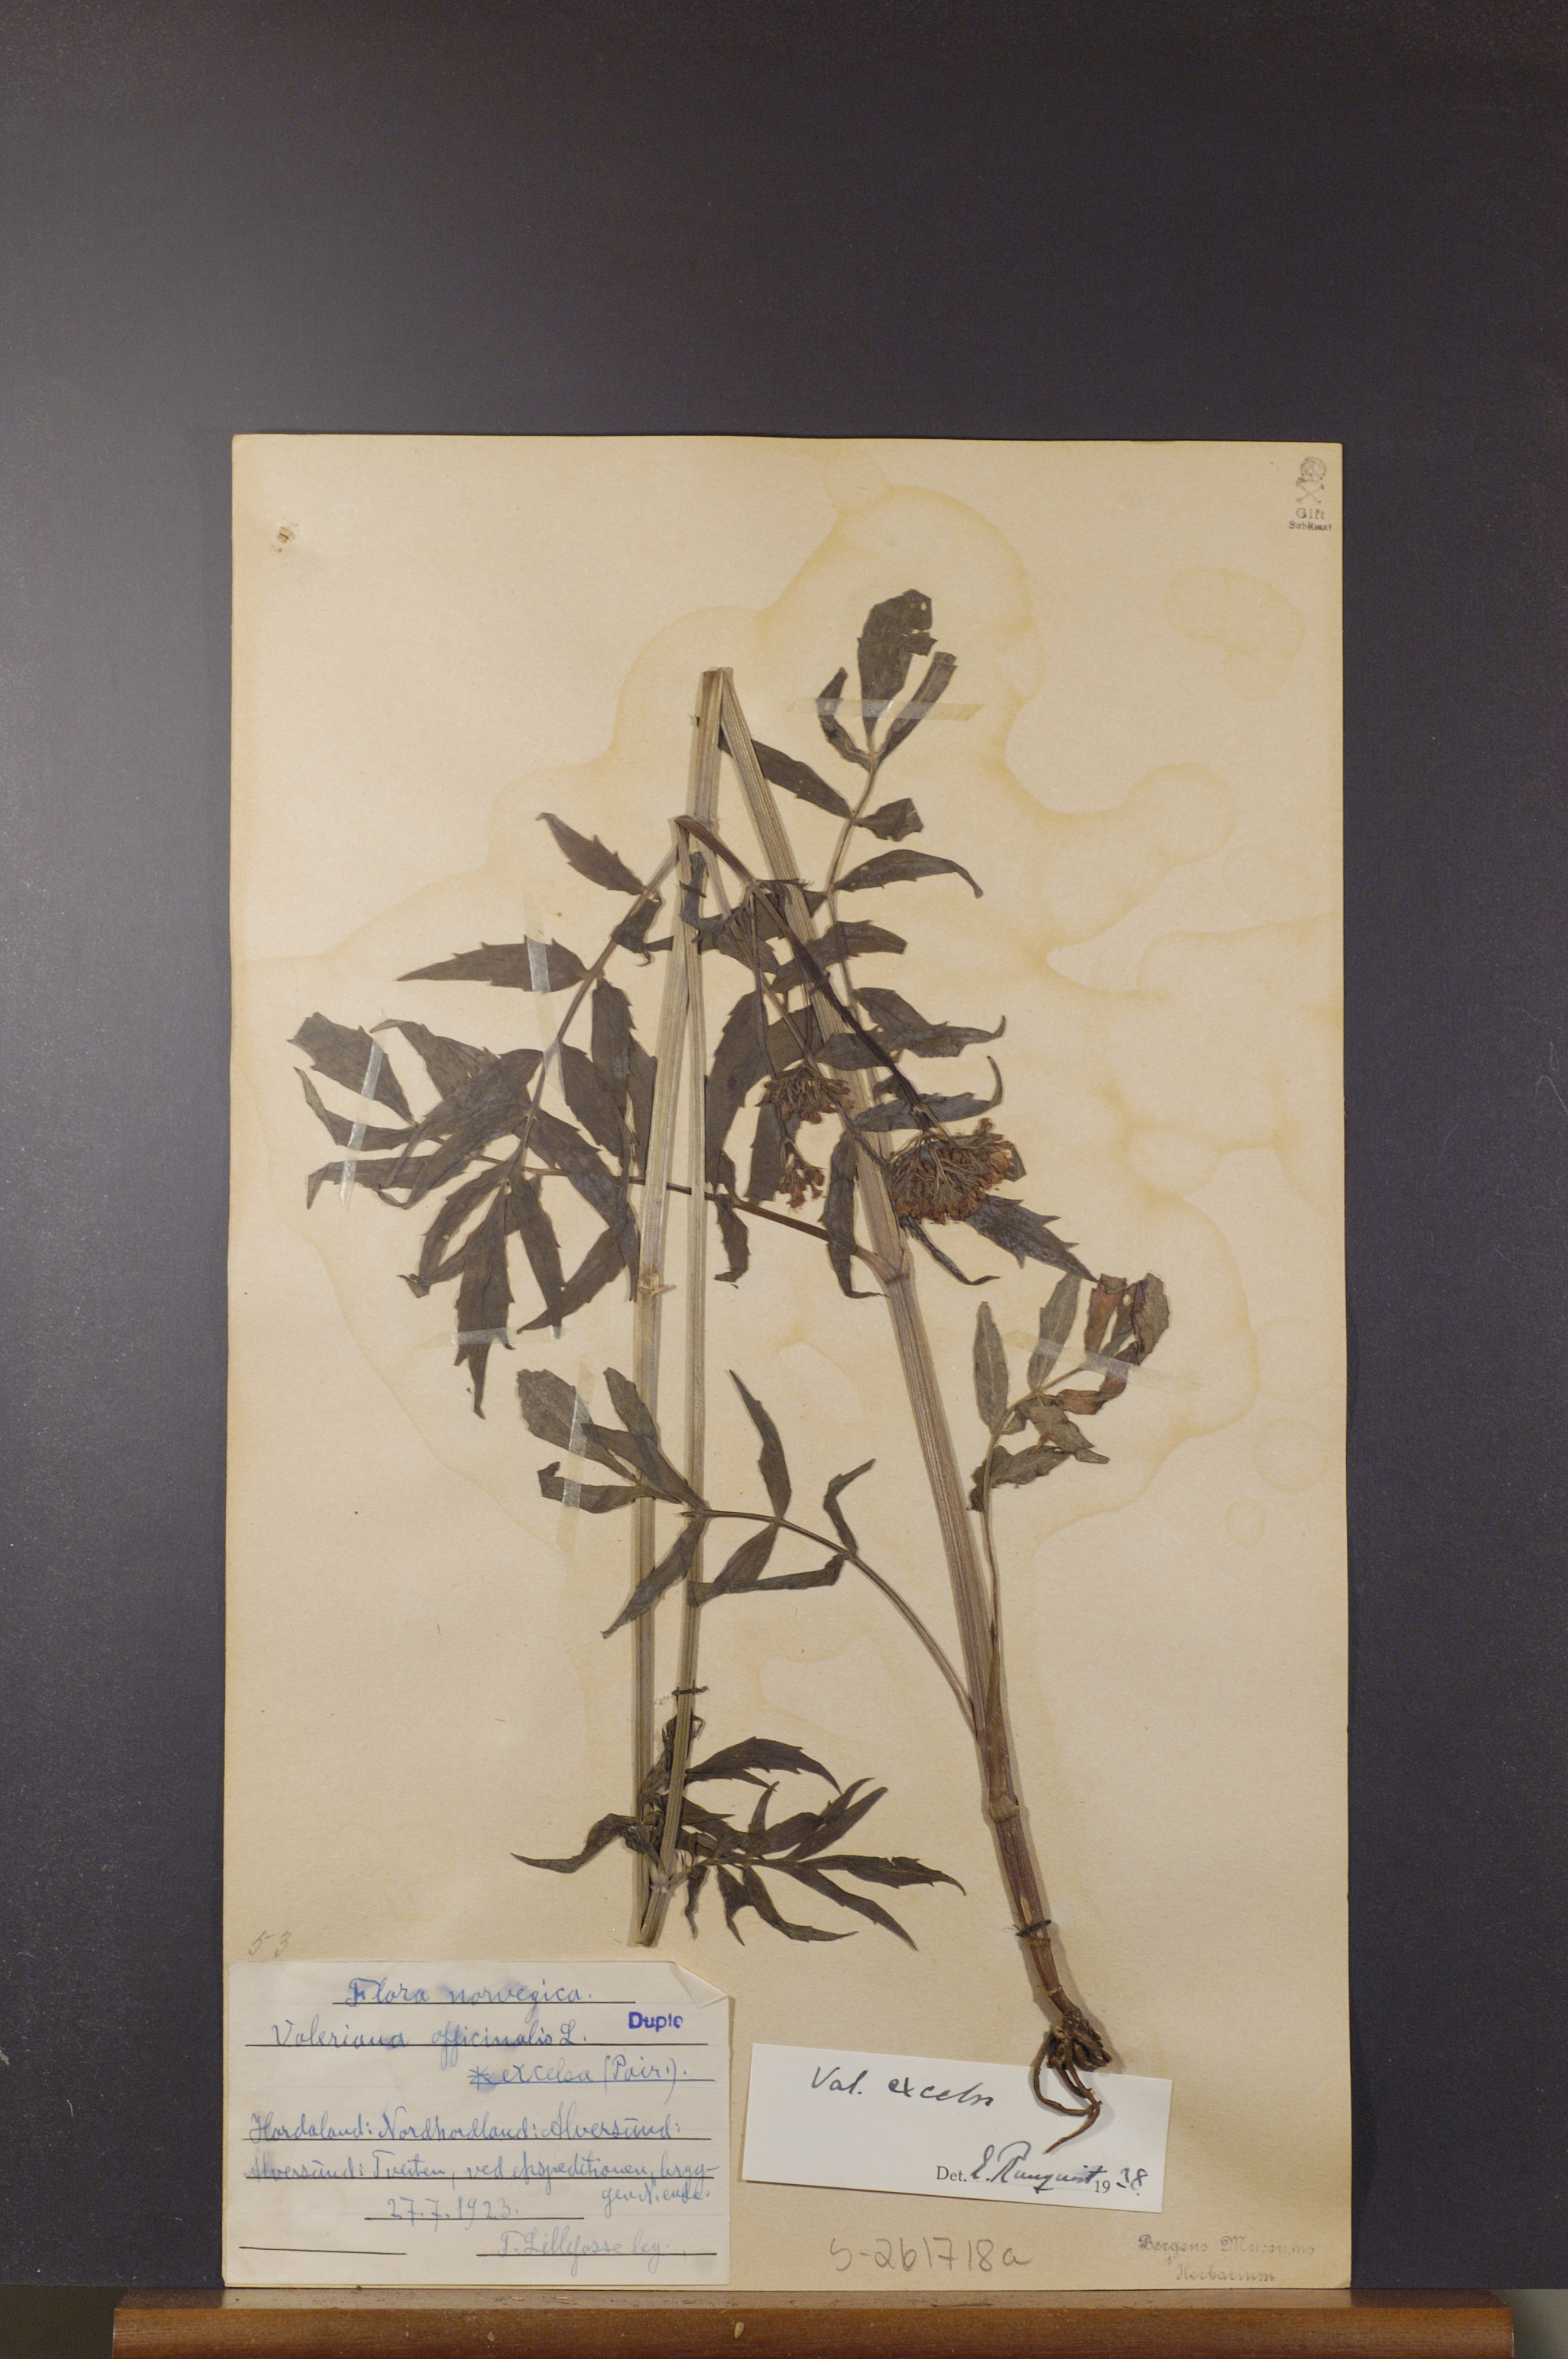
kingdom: Plantae
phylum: Tracheophyta
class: Magnoliopsida
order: Dipsacales
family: Caprifoliaceae
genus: Valeriana
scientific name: Valeriana sambucifolia
